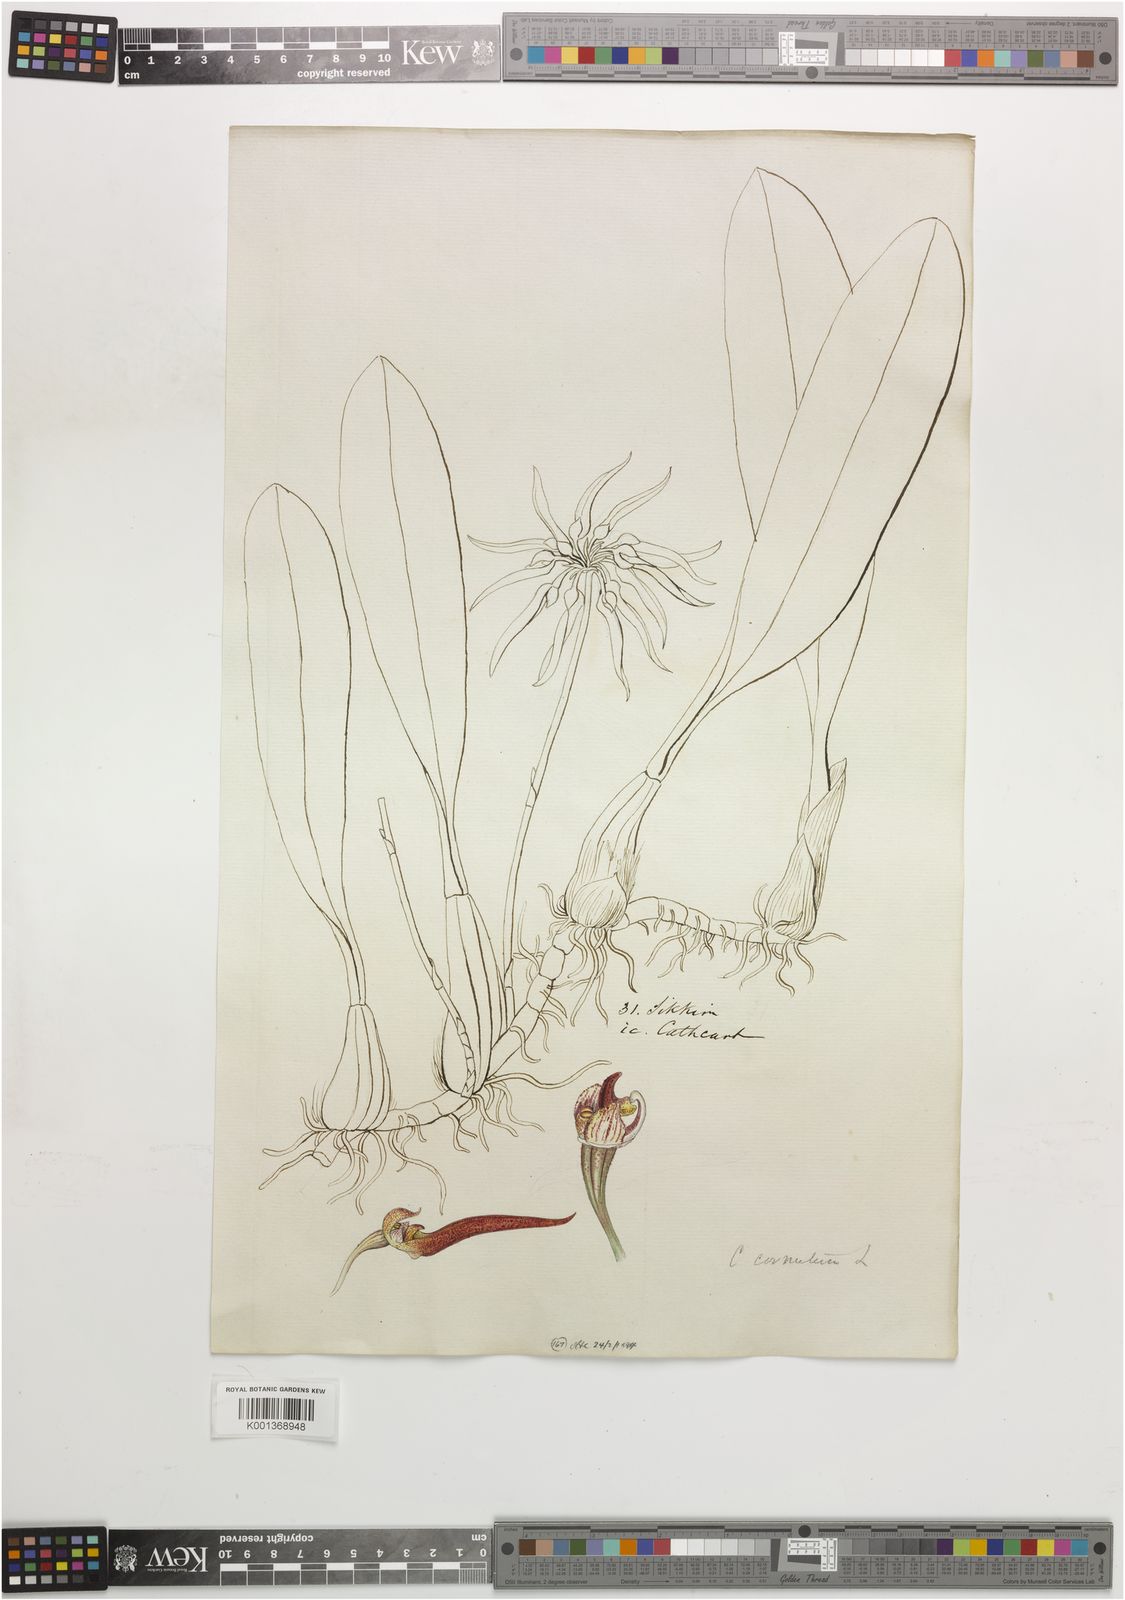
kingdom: Plantae
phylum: Tracheophyta
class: Liliopsida
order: Asparagales
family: Orchidaceae
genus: Bulbophyllum
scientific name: Bulbophyllum helenae
